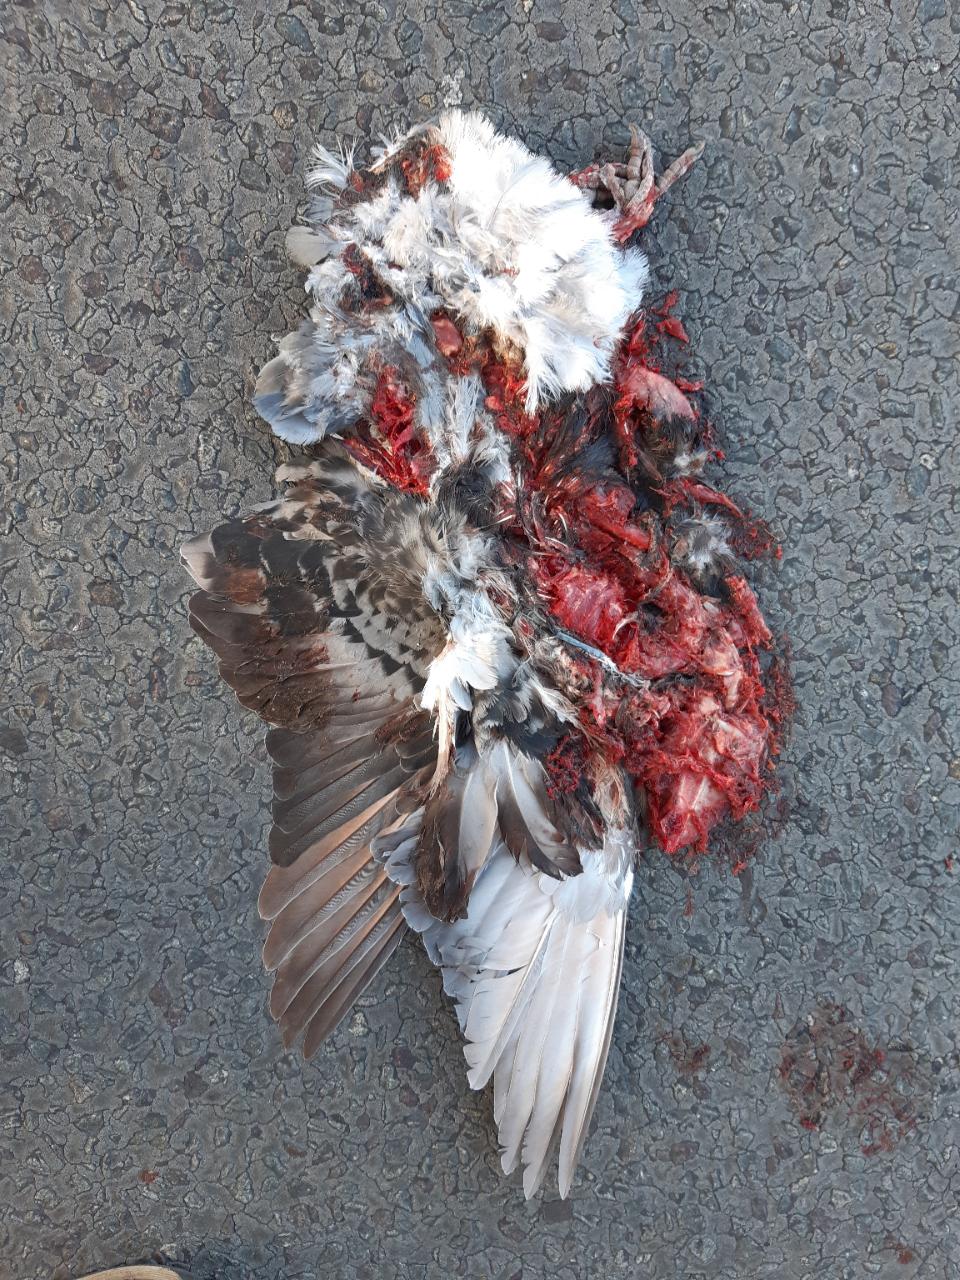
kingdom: Animalia
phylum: Chordata
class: Aves
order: Columbiformes
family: Columbidae
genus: Columba
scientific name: Columba livia
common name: Rock pigeon
